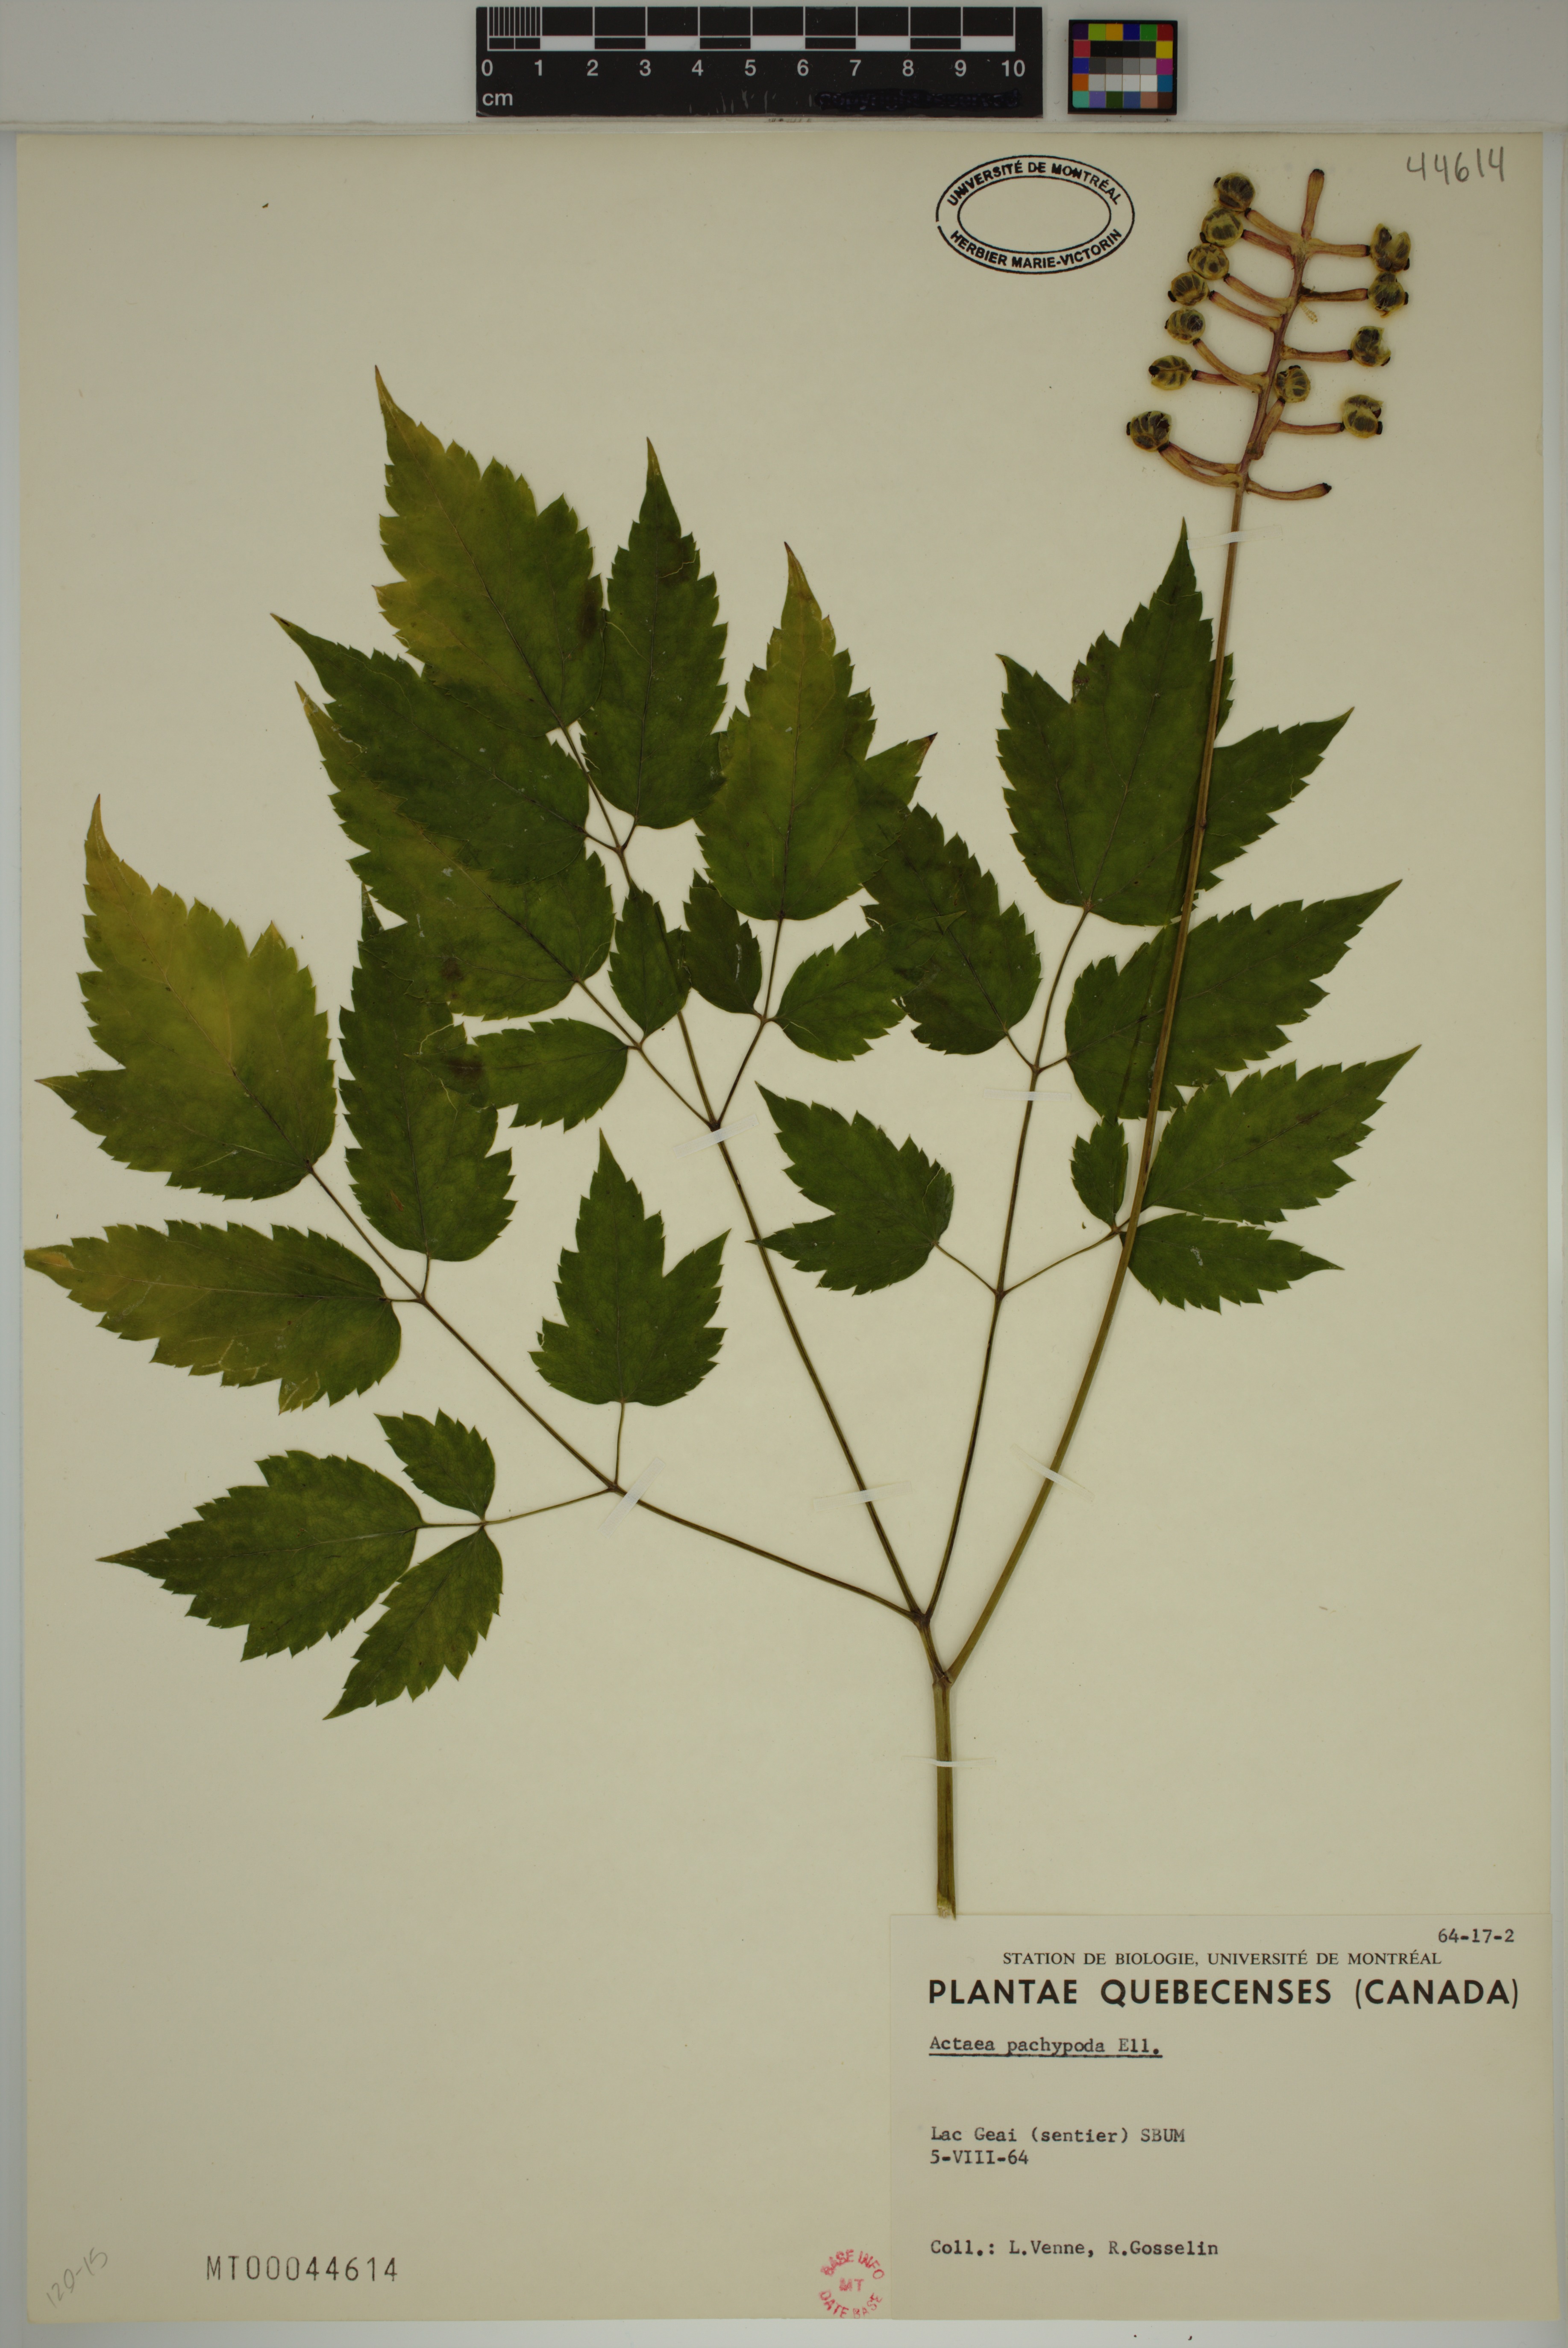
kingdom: Plantae
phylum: Tracheophyta
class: Magnoliopsida
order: Ranunculales
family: Ranunculaceae
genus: Actaea
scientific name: Actaea pachypoda
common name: Doll's-eyes
